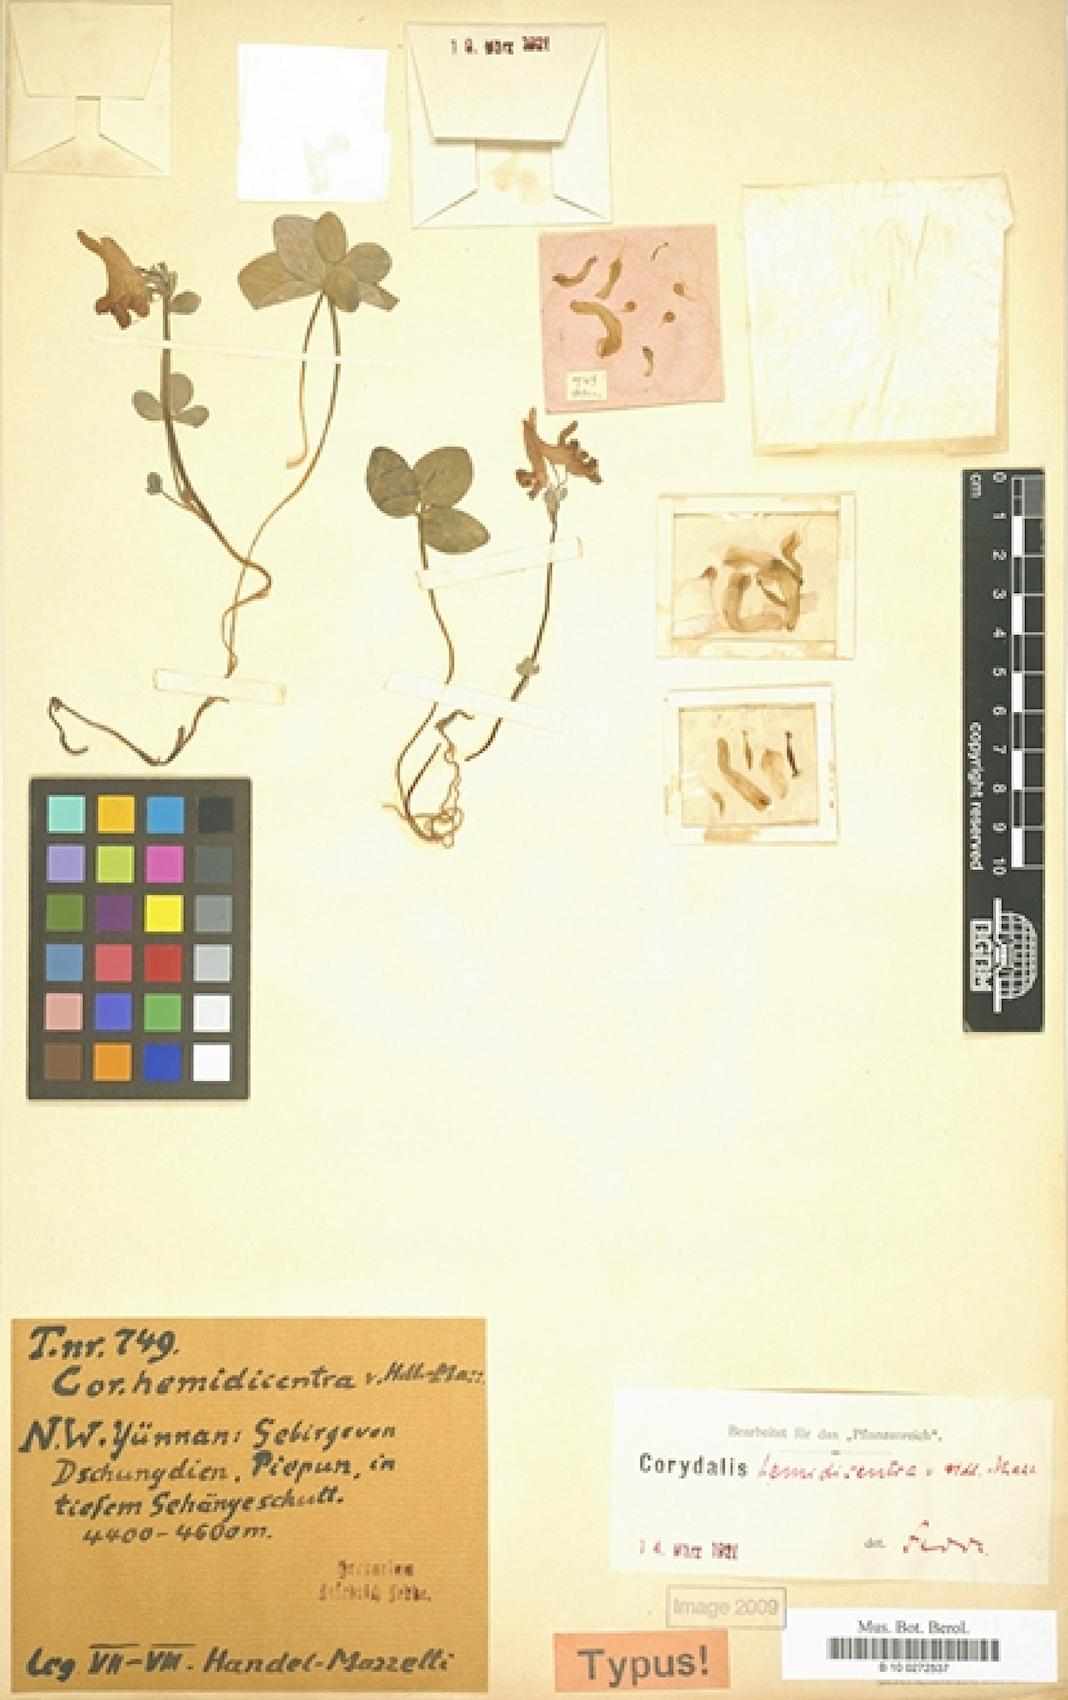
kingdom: Plantae
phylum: Tracheophyta
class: Magnoliopsida
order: Ranunculales
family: Papaveraceae
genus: Corydalis
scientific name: Corydalis hemidicentra
